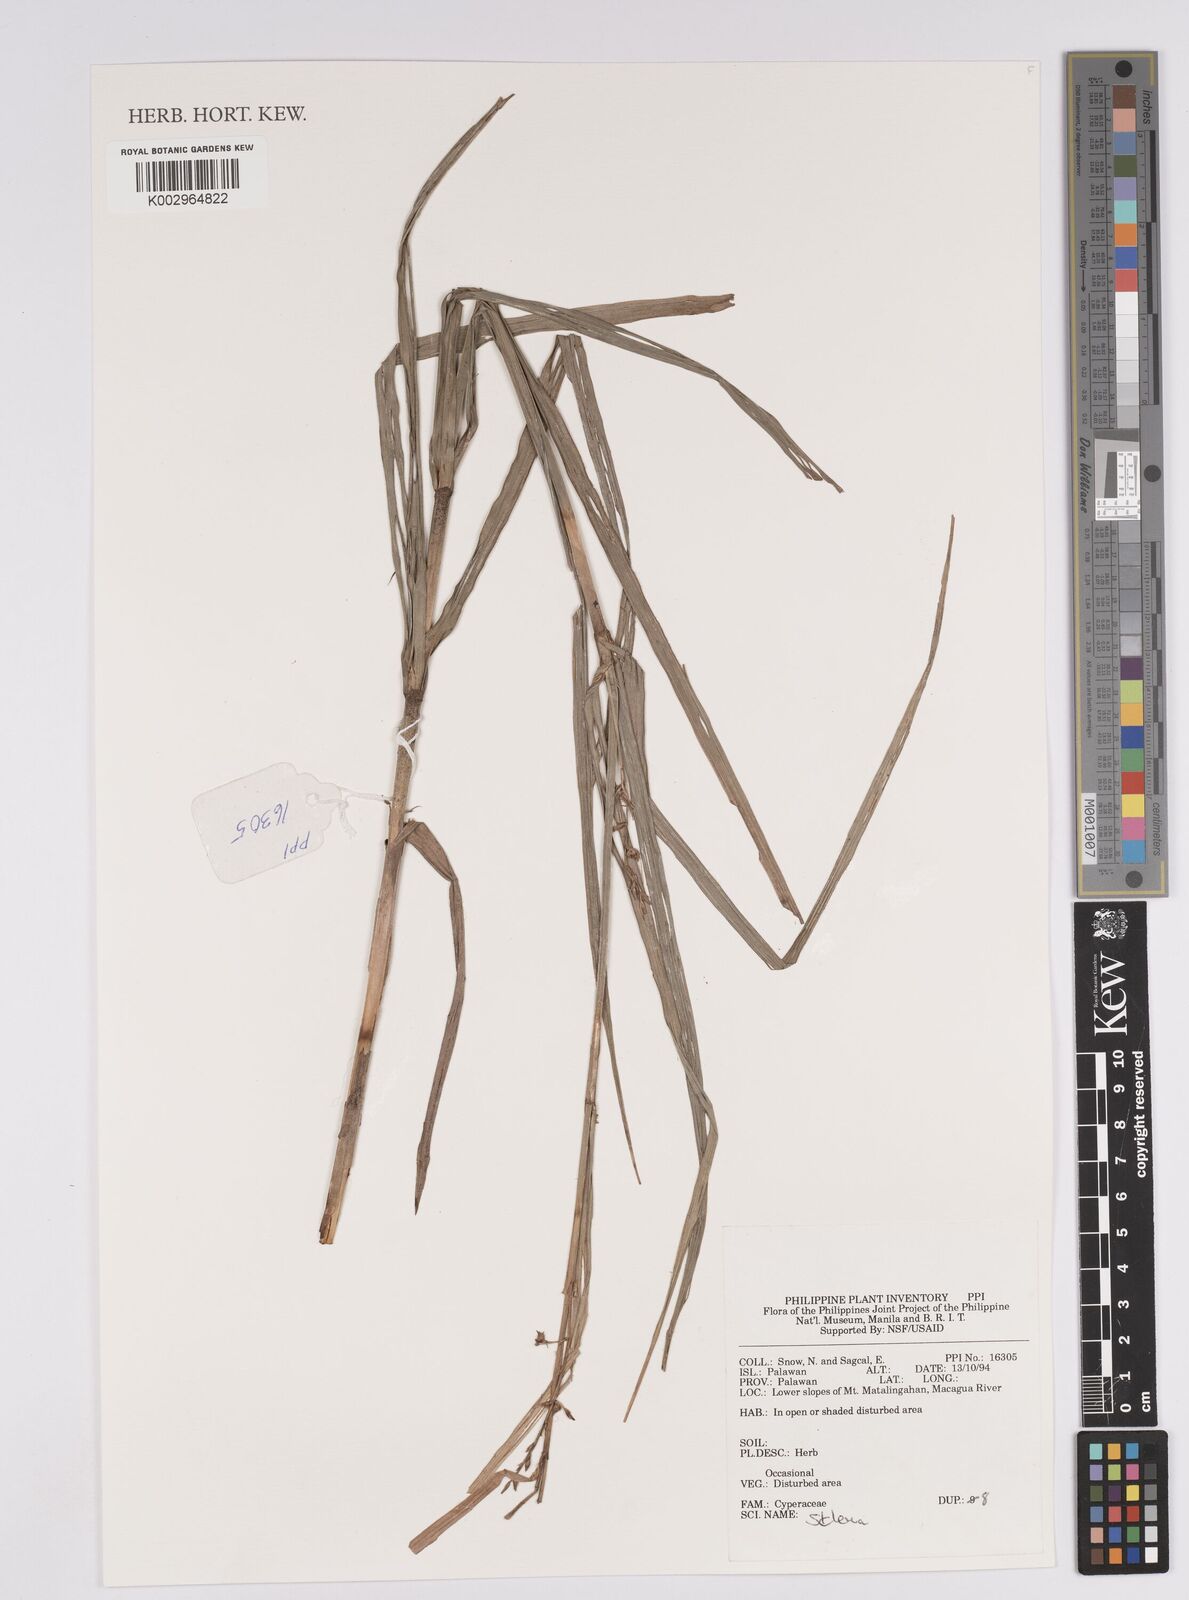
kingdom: Plantae
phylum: Tracheophyta
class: Liliopsida
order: Poales
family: Cyperaceae
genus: Scleria
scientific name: Scleria
